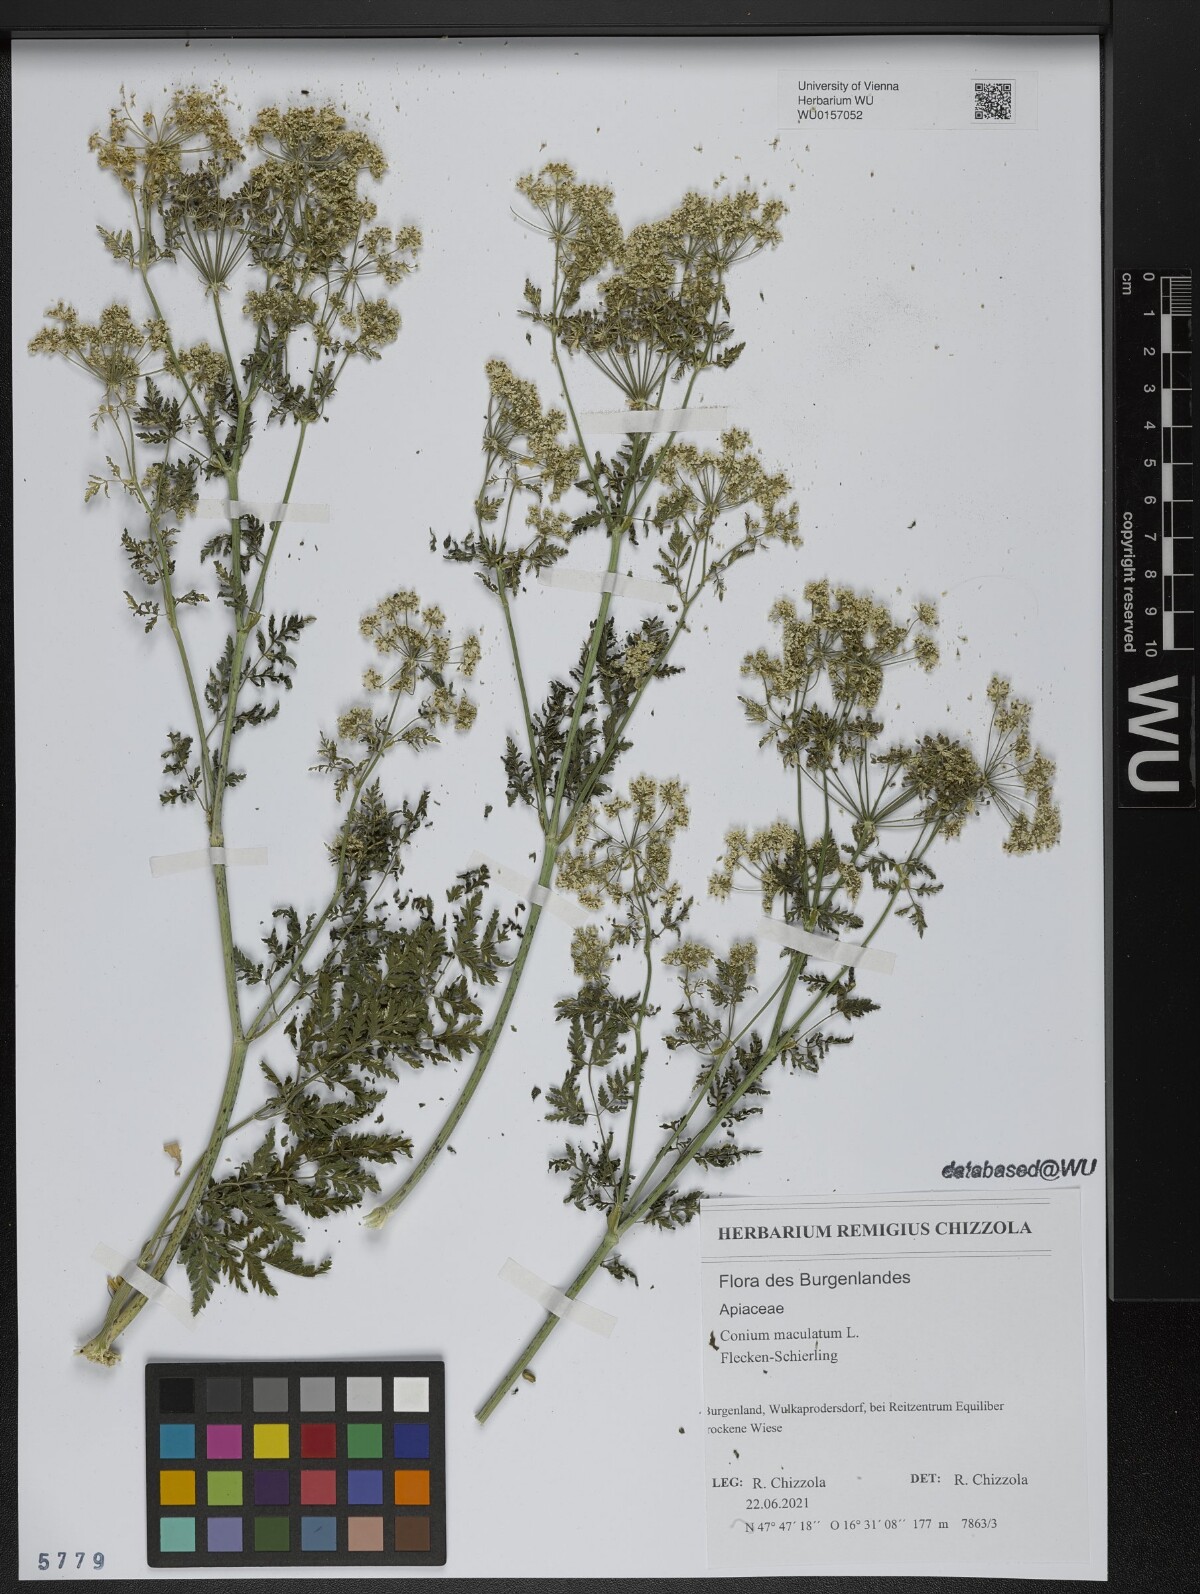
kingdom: Plantae
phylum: Tracheophyta
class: Magnoliopsida
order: Apiales
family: Apiaceae
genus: Conium
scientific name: Conium maculatum
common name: Hemlock
